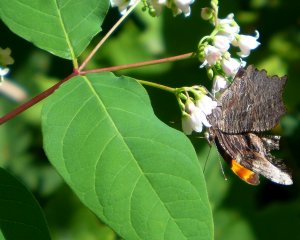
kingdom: Animalia
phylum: Arthropoda
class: Insecta
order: Lepidoptera
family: Nymphalidae
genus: Polygonia
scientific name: Polygonia progne
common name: Gray Comma
